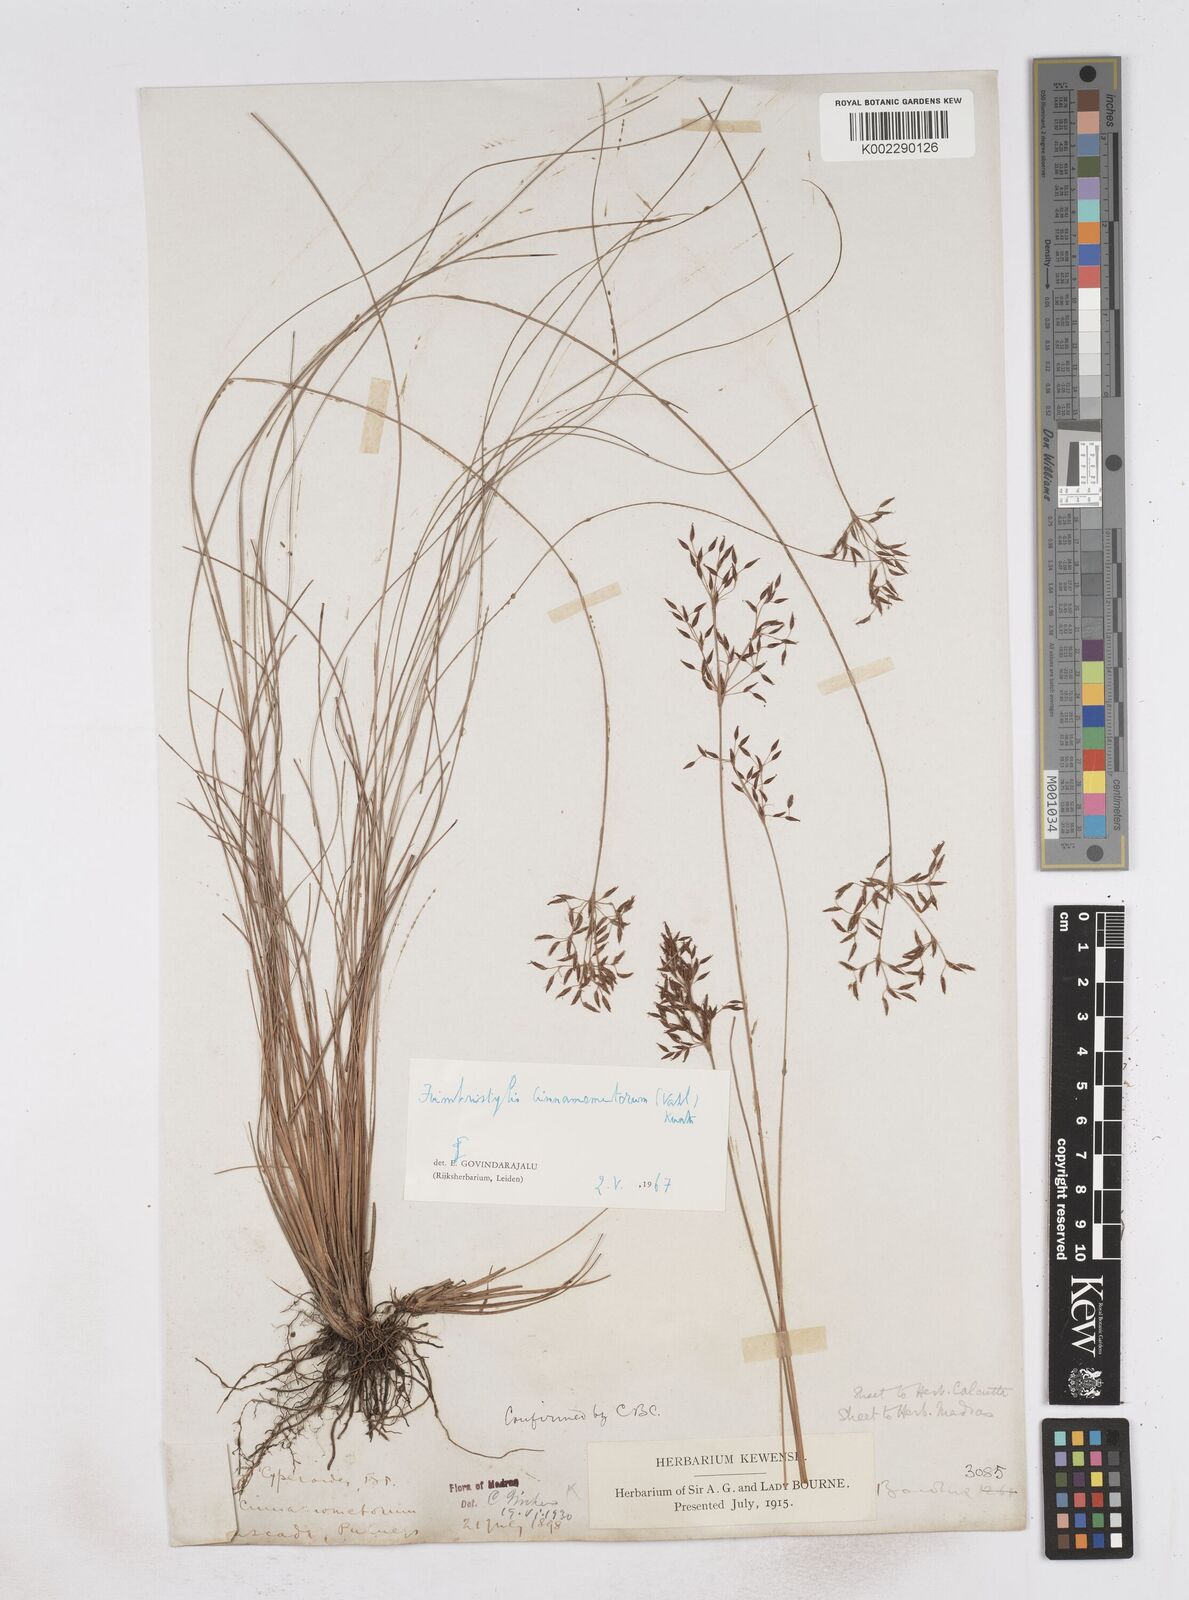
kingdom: Plantae
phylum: Tracheophyta
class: Liliopsida
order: Poales
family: Cyperaceae
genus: Fimbristylis
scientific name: Fimbristylis cinnamometorum
